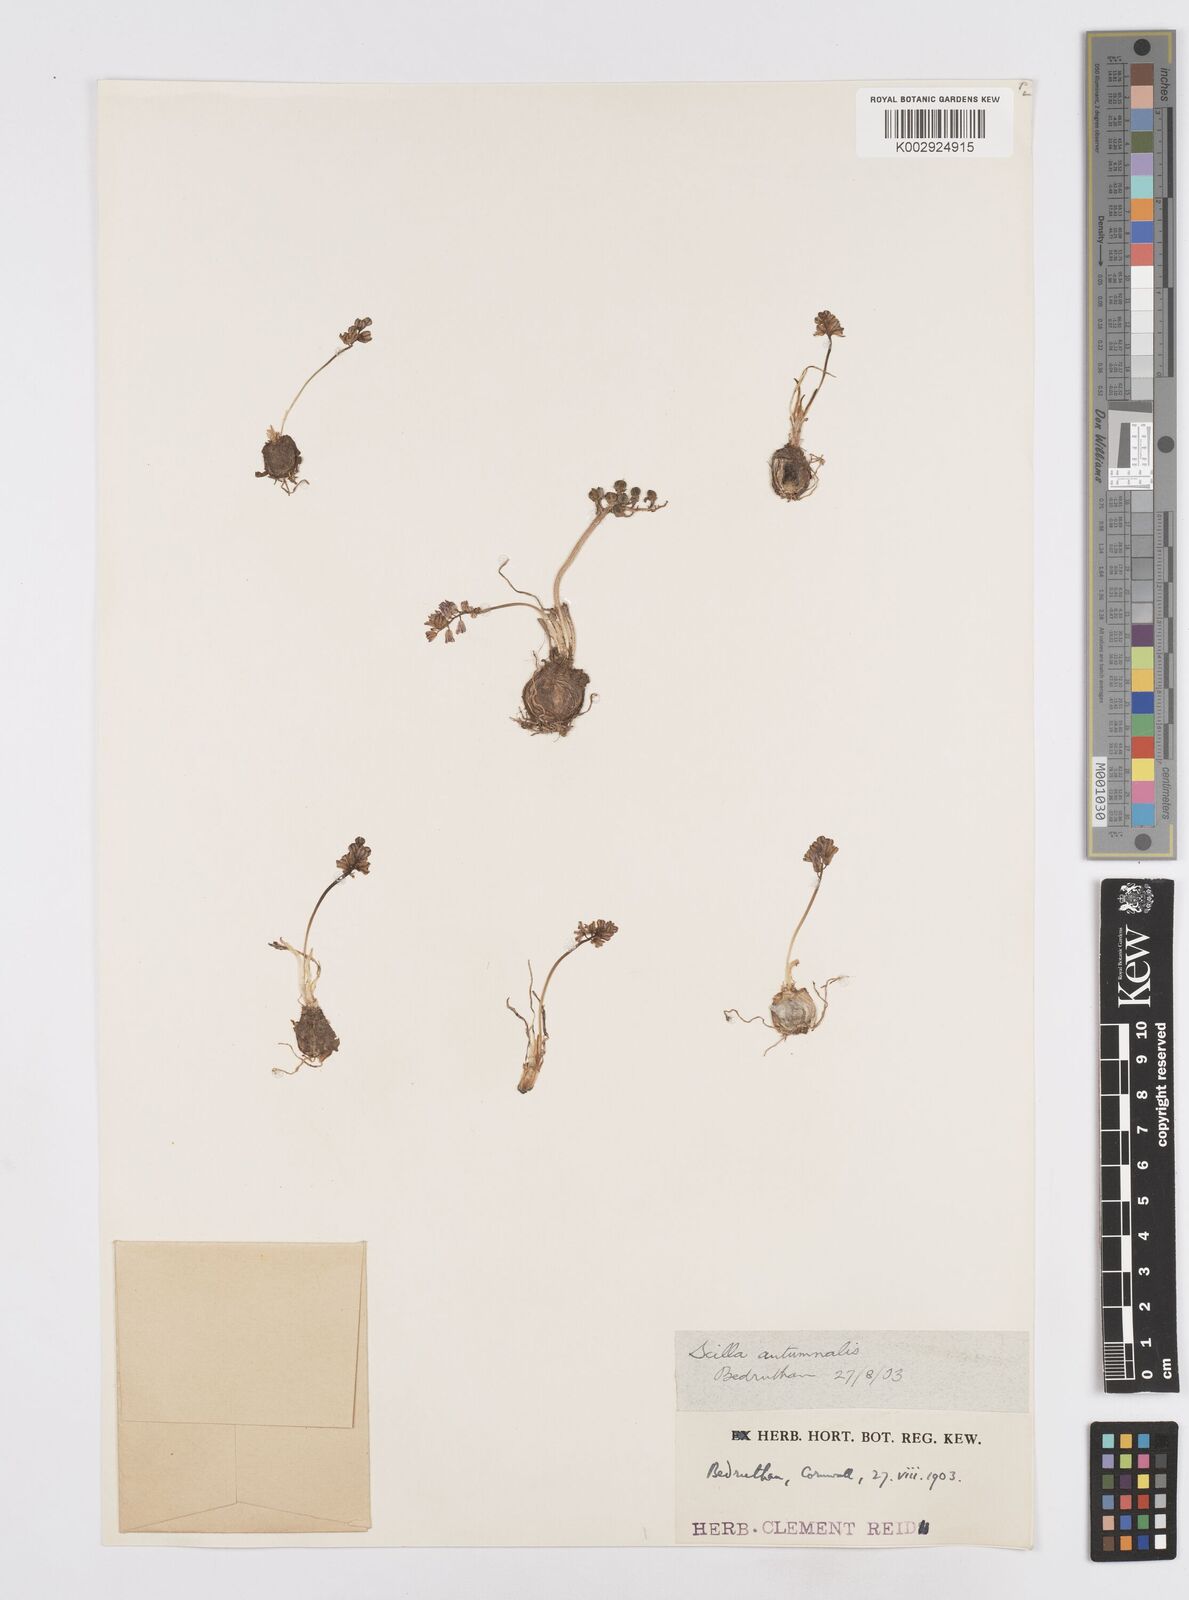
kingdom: Plantae
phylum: Tracheophyta
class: Liliopsida
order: Asparagales
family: Asparagaceae
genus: Prospero
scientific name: Prospero autumnale
